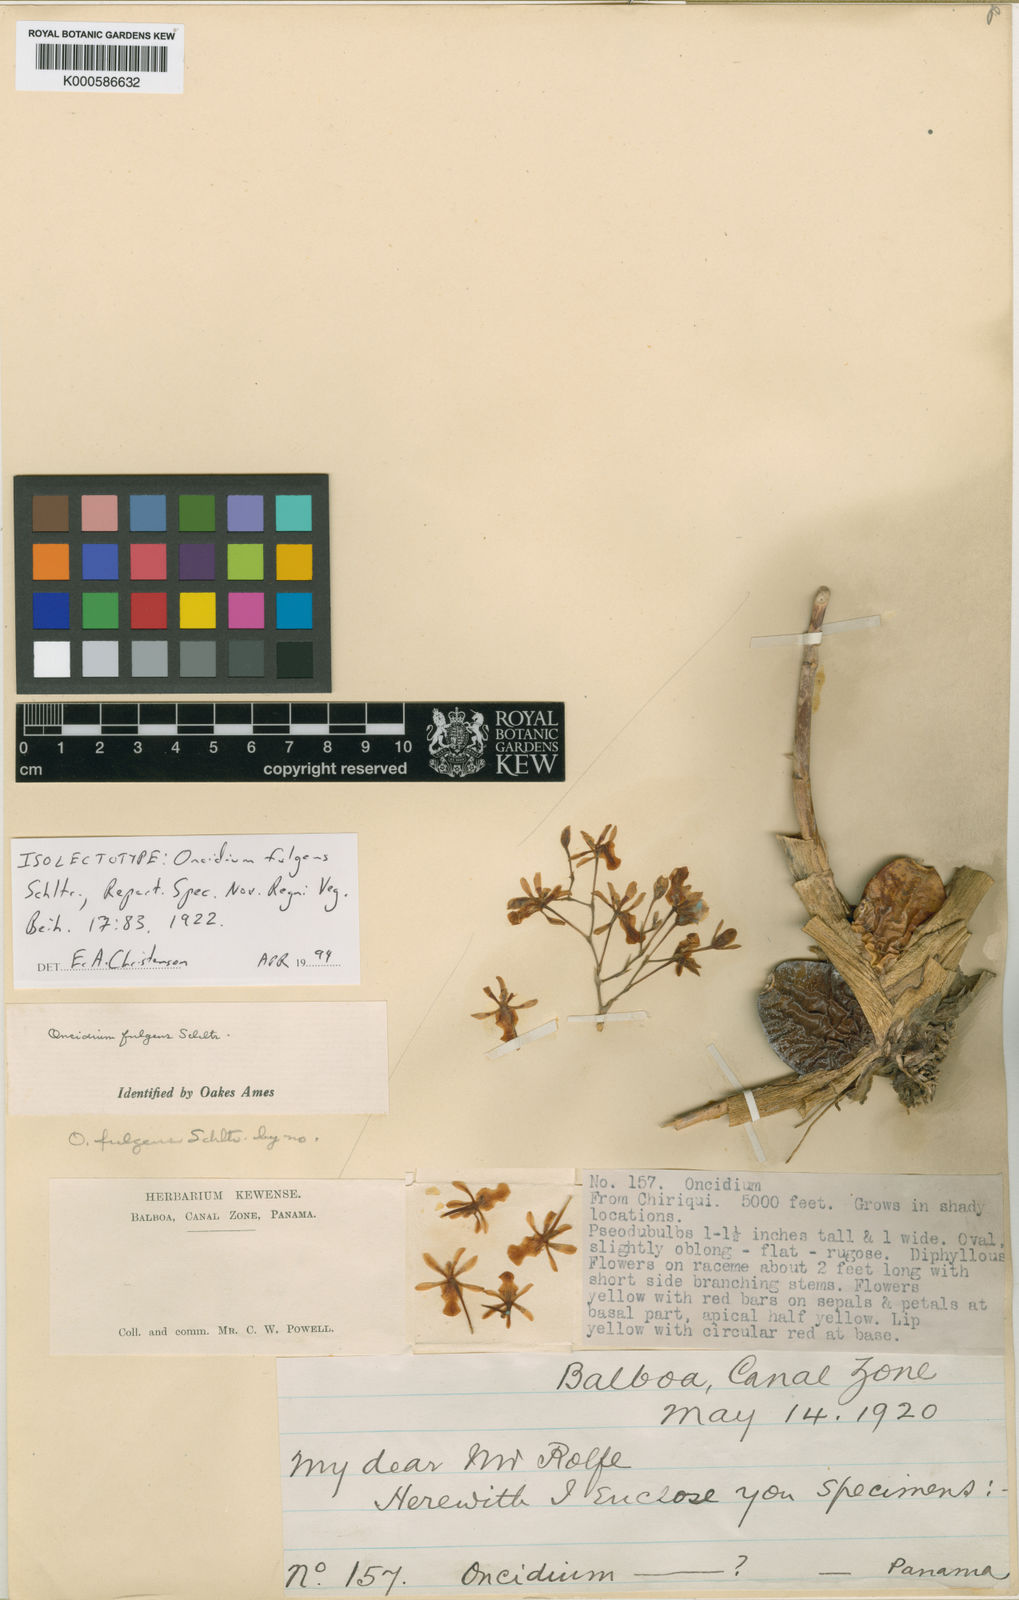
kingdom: Plantae
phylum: Tracheophyta
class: Liliopsida
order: Asparagales
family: Orchidaceae
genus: Oncidium
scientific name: Oncidium obryzatum
